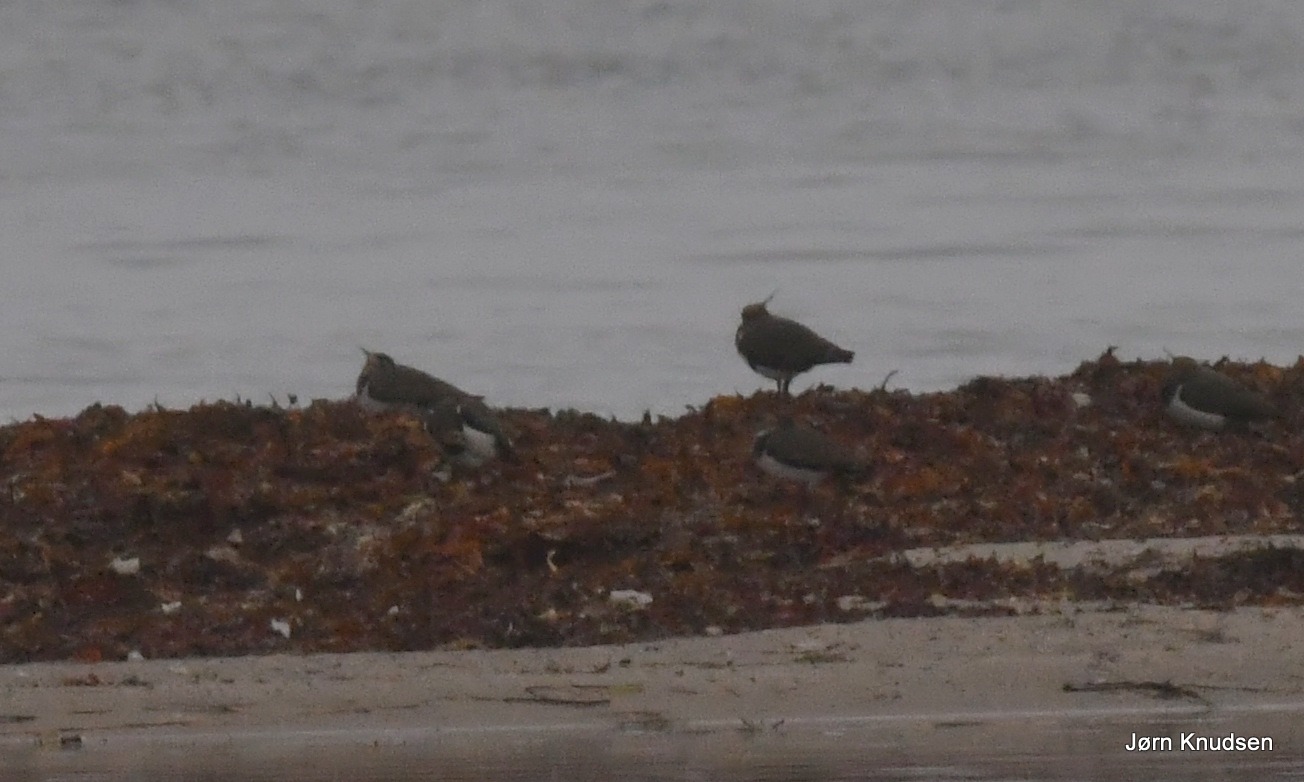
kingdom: Animalia
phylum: Chordata
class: Aves
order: Charadriiformes
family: Charadriidae
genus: Vanellus
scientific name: Vanellus vanellus
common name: Vibe
